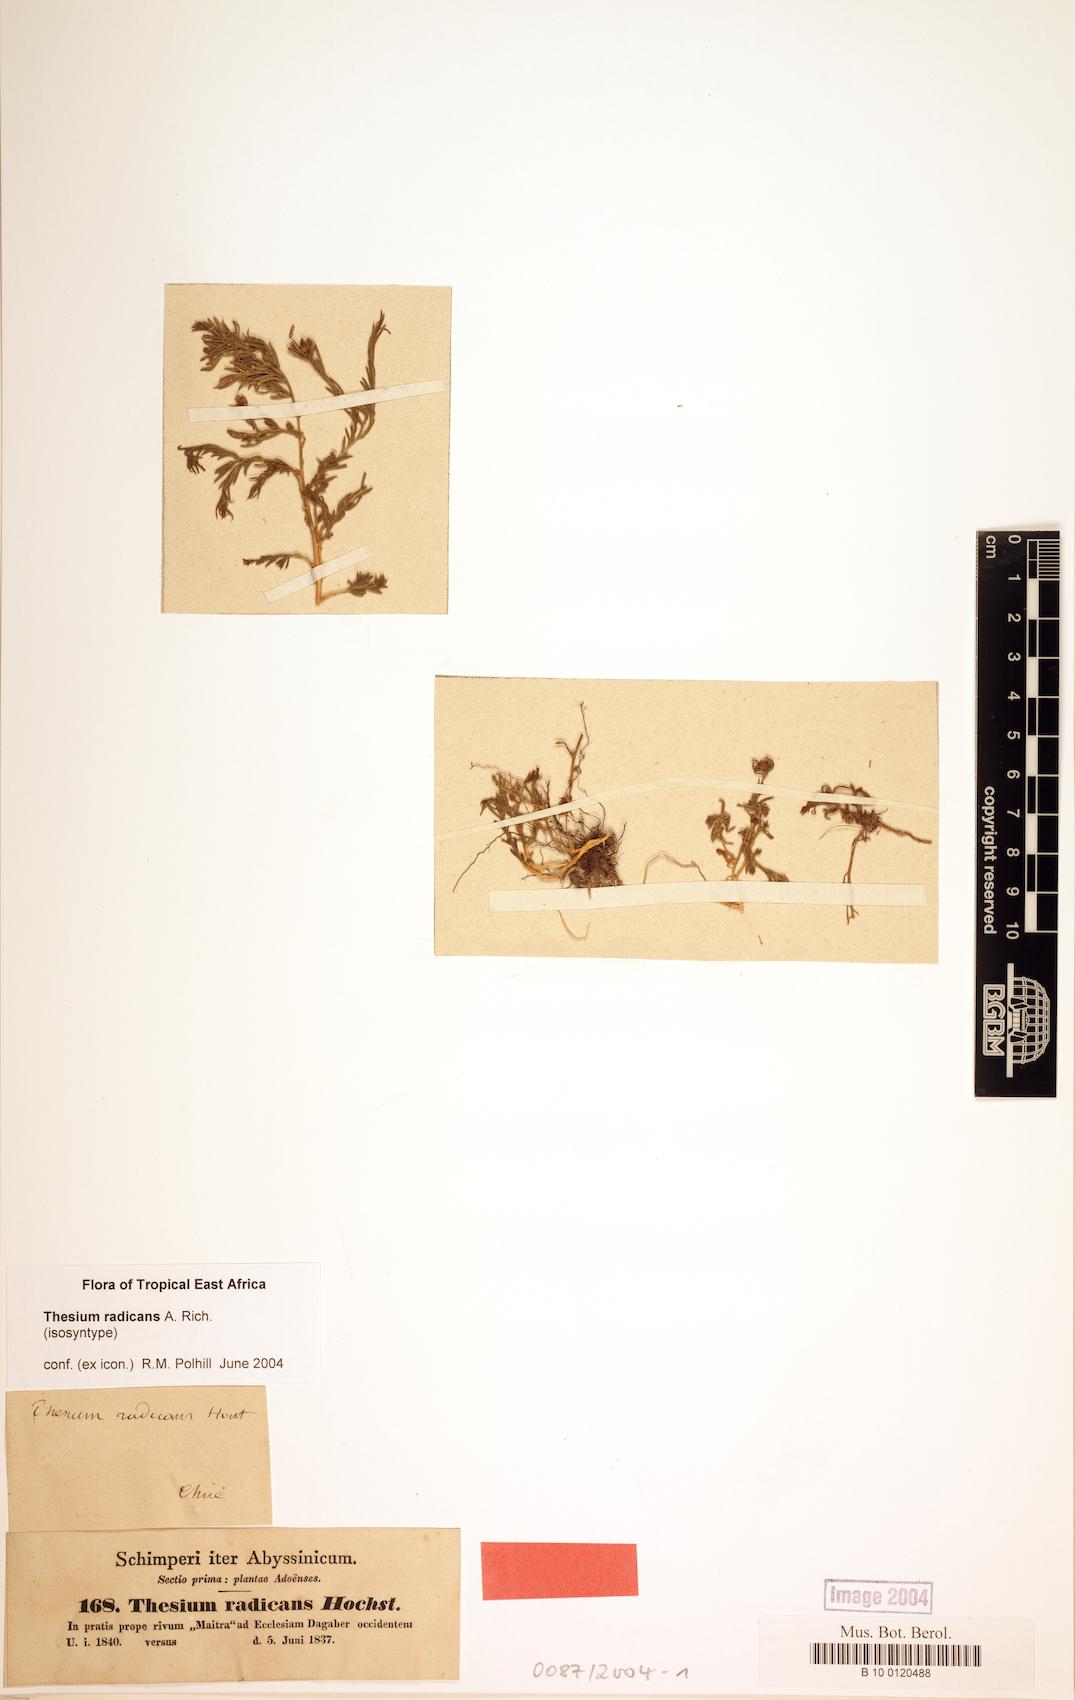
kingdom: Plantae
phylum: Tracheophyta
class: Magnoliopsida
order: Santalales
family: Thesiaceae
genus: Thesium
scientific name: Thesium radicans
